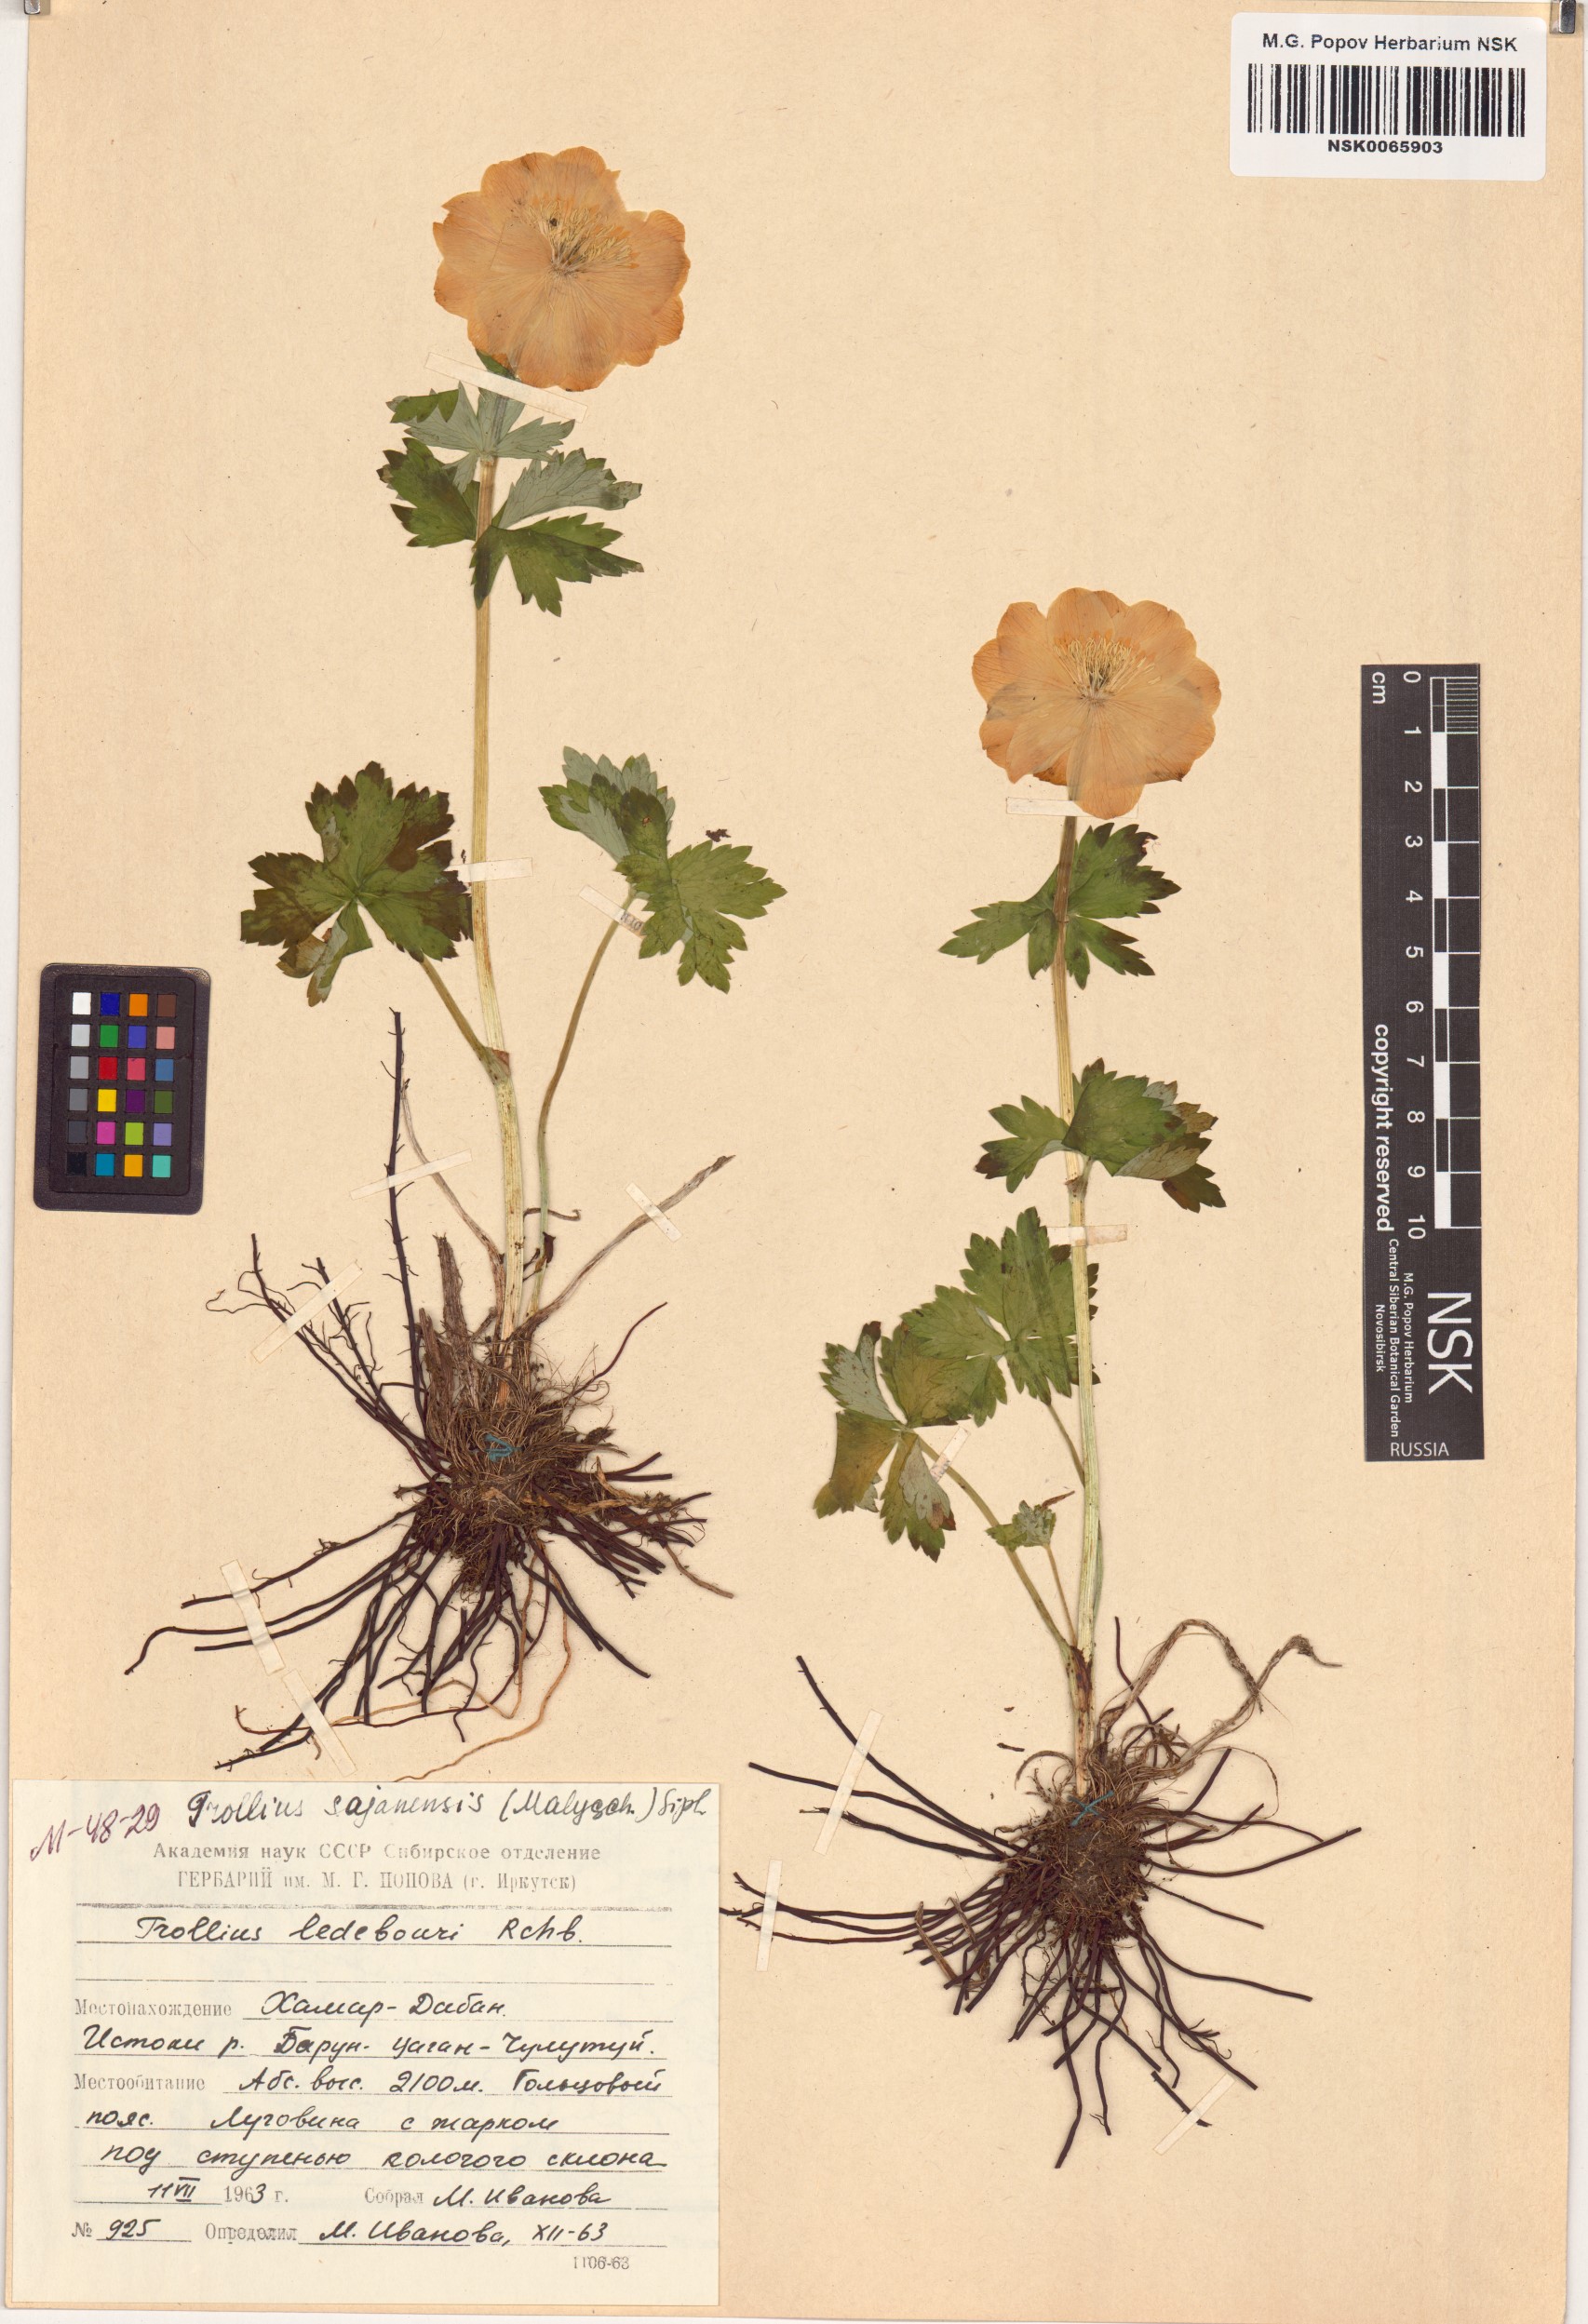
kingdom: Plantae
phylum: Tracheophyta
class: Magnoliopsida
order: Ranunculales
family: Ranunculaceae
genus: Trollius
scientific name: Trollius altaicus
